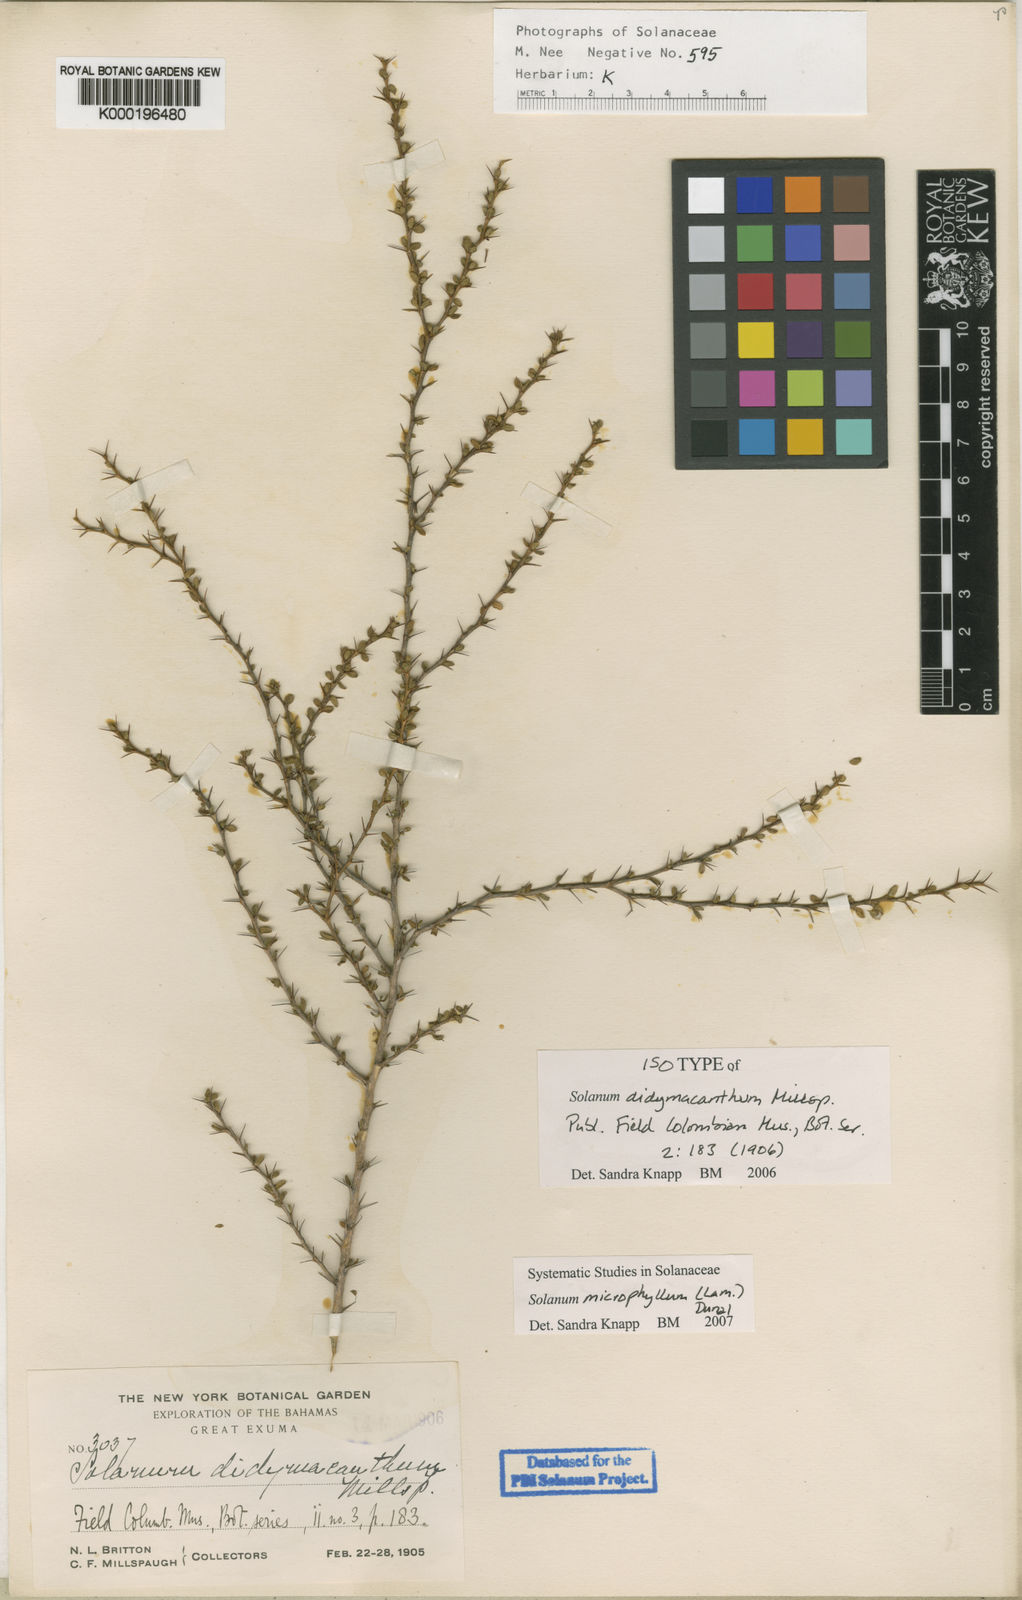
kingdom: Plantae
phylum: Tracheophyta
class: Magnoliopsida
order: Solanales
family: Solanaceae
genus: Solanum
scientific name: Solanum
